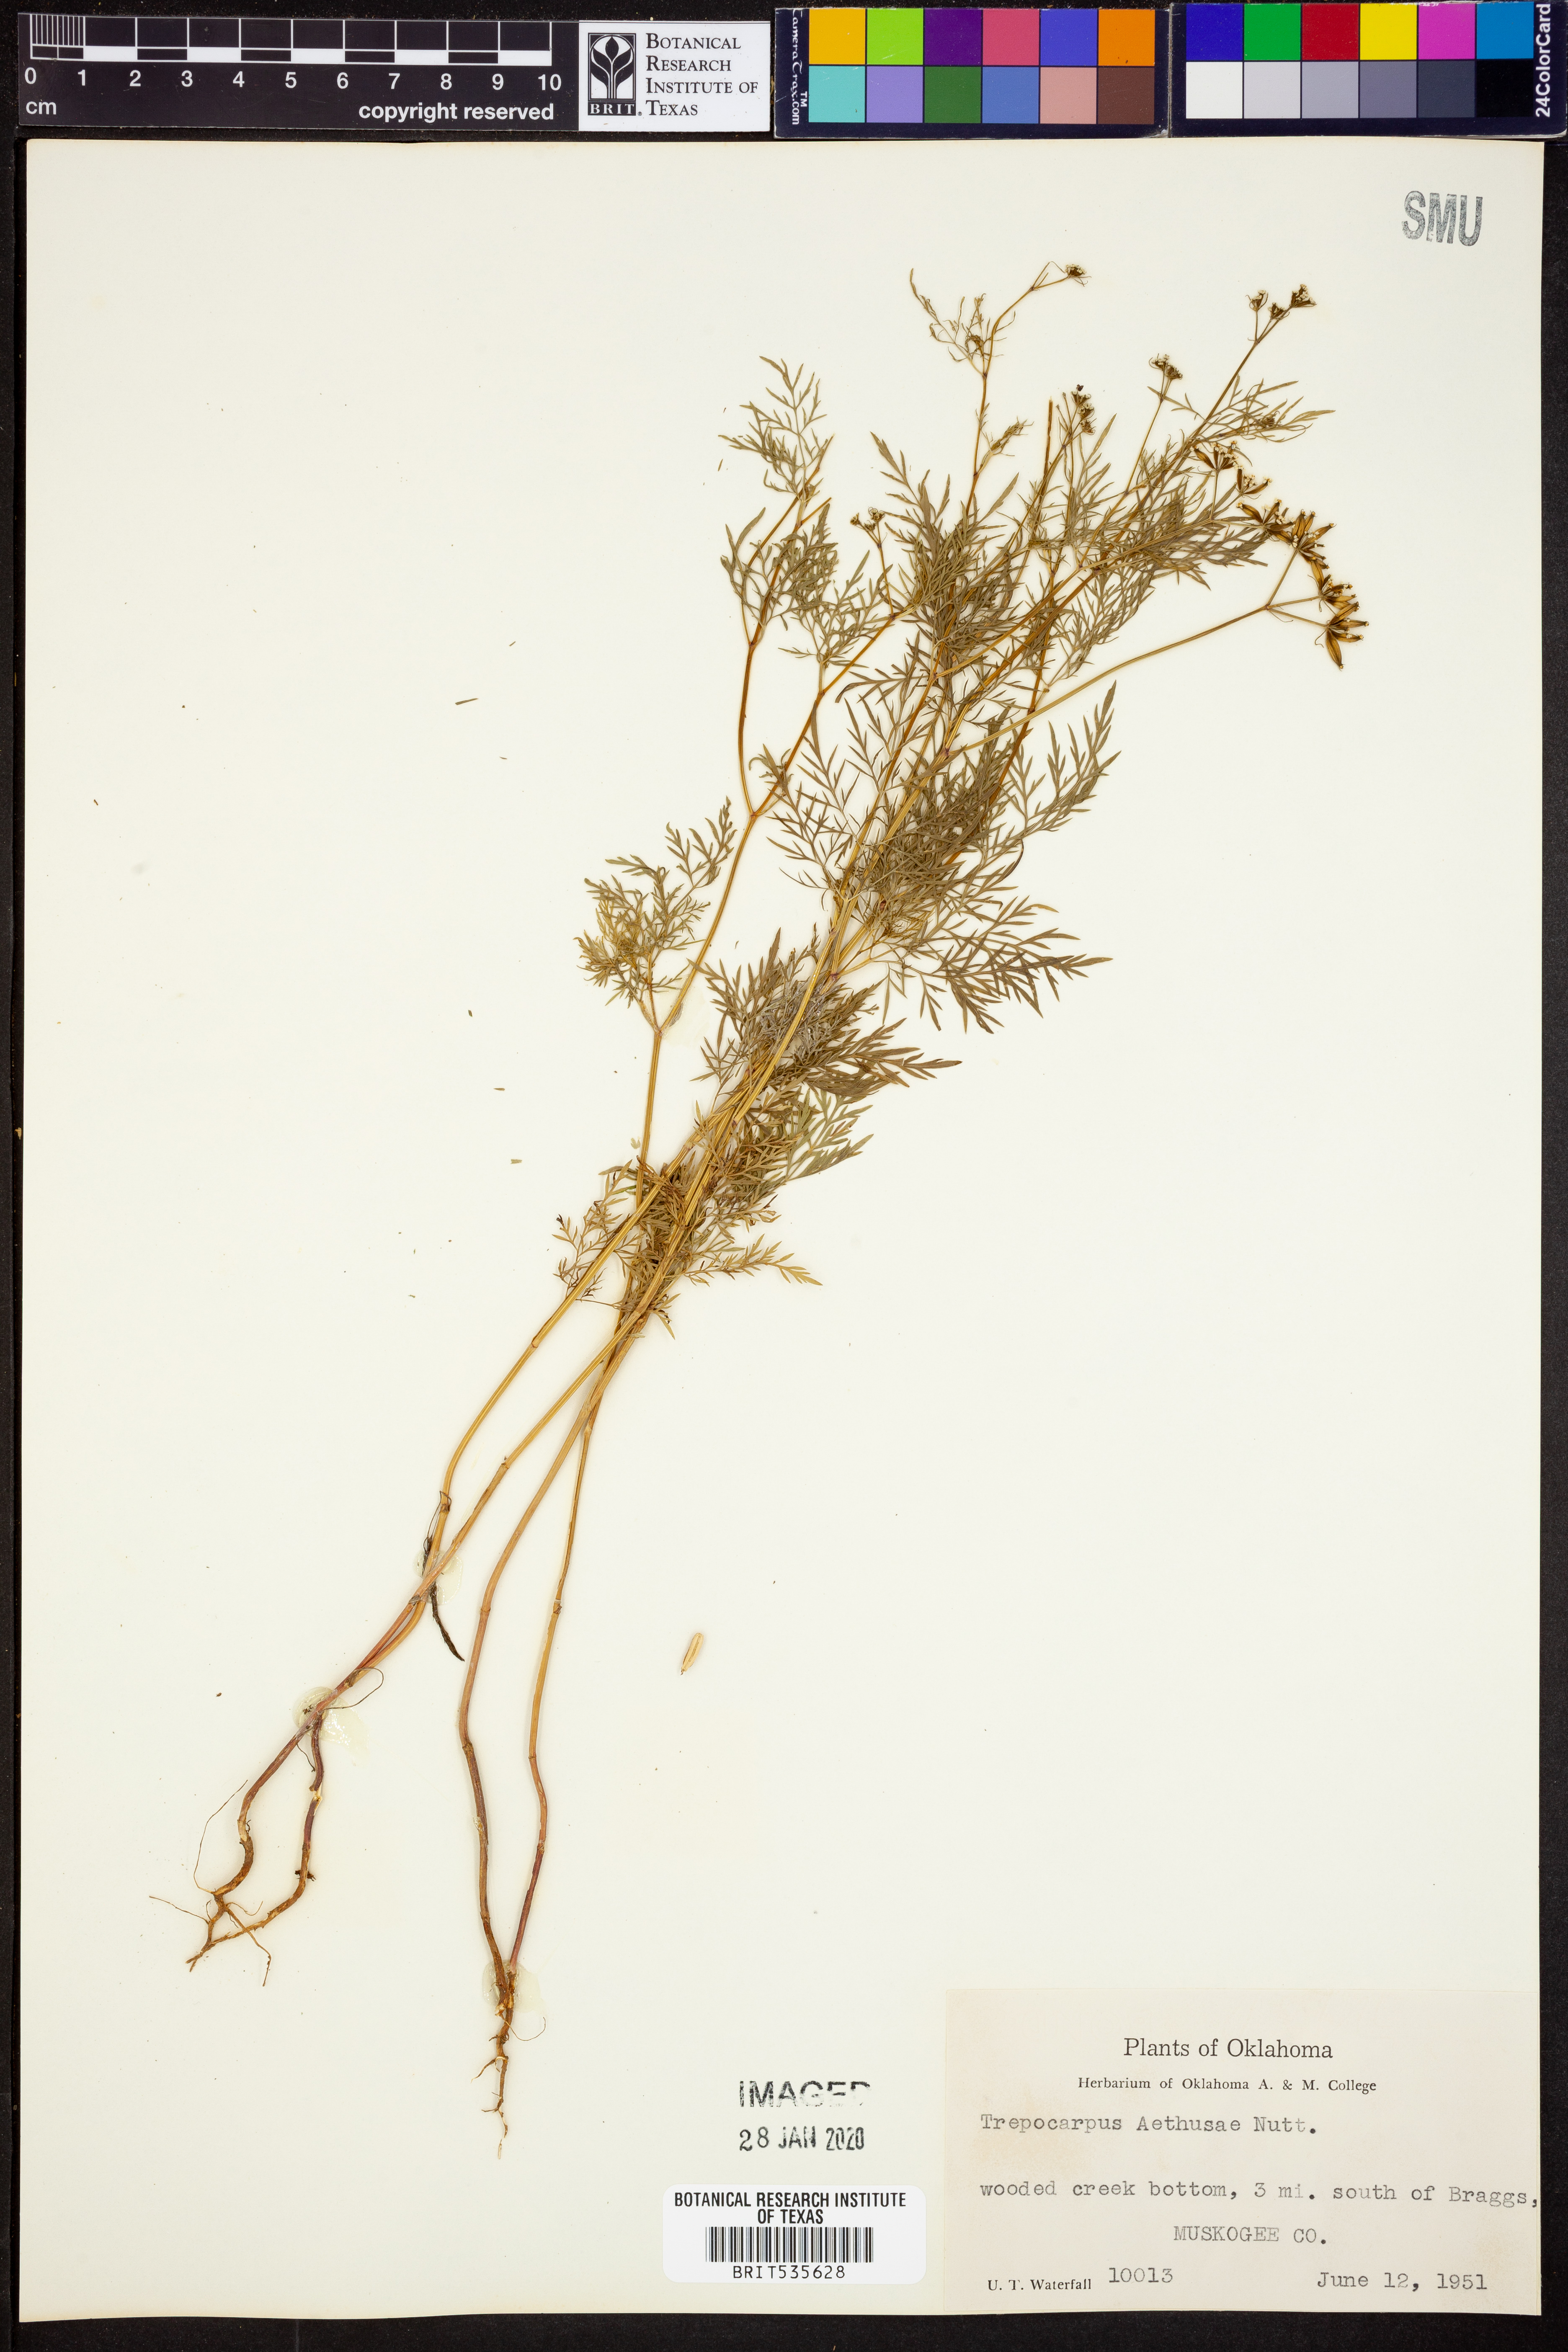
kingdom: Plantae
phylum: Tracheophyta
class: Magnoliopsida
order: Apiales
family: Apiaceae
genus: Trepocarpus
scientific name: Trepocarpus aethusae
